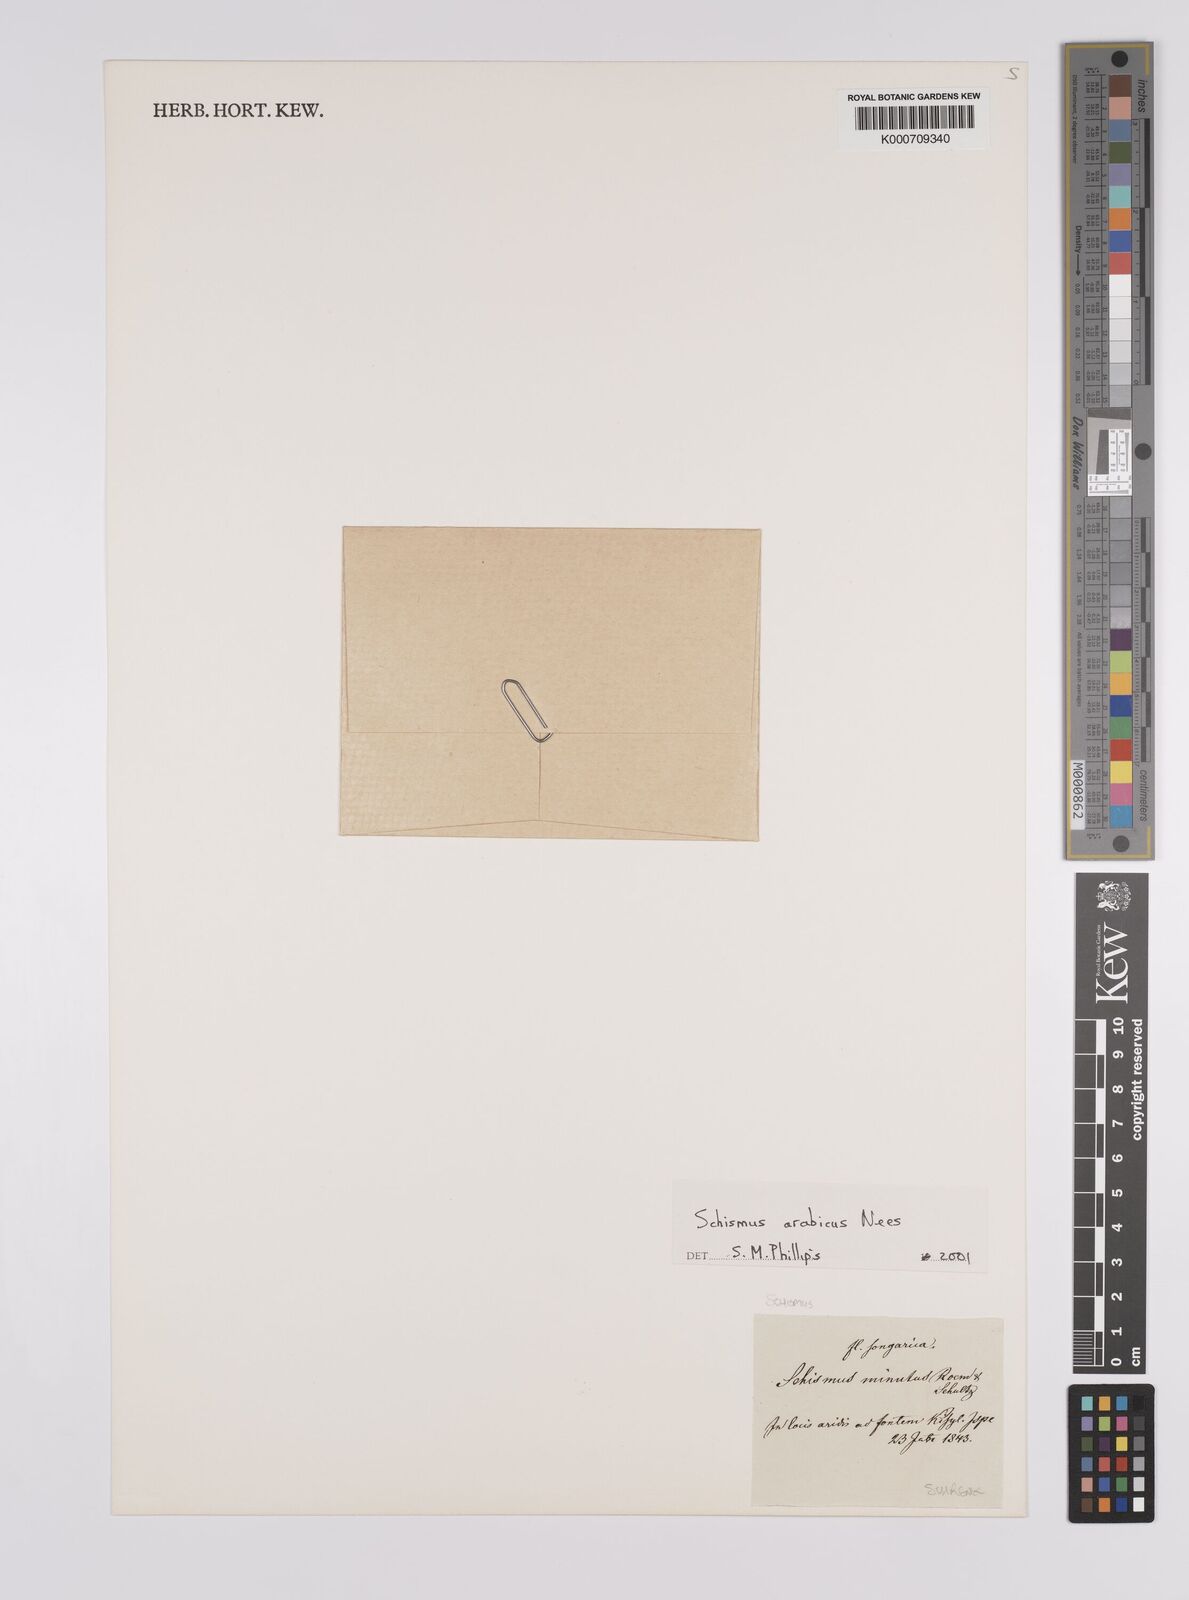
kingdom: Plantae
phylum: Tracheophyta
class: Liliopsida
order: Poales
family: Poaceae
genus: Schismus
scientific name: Schismus arabicus
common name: Arabian schismus
